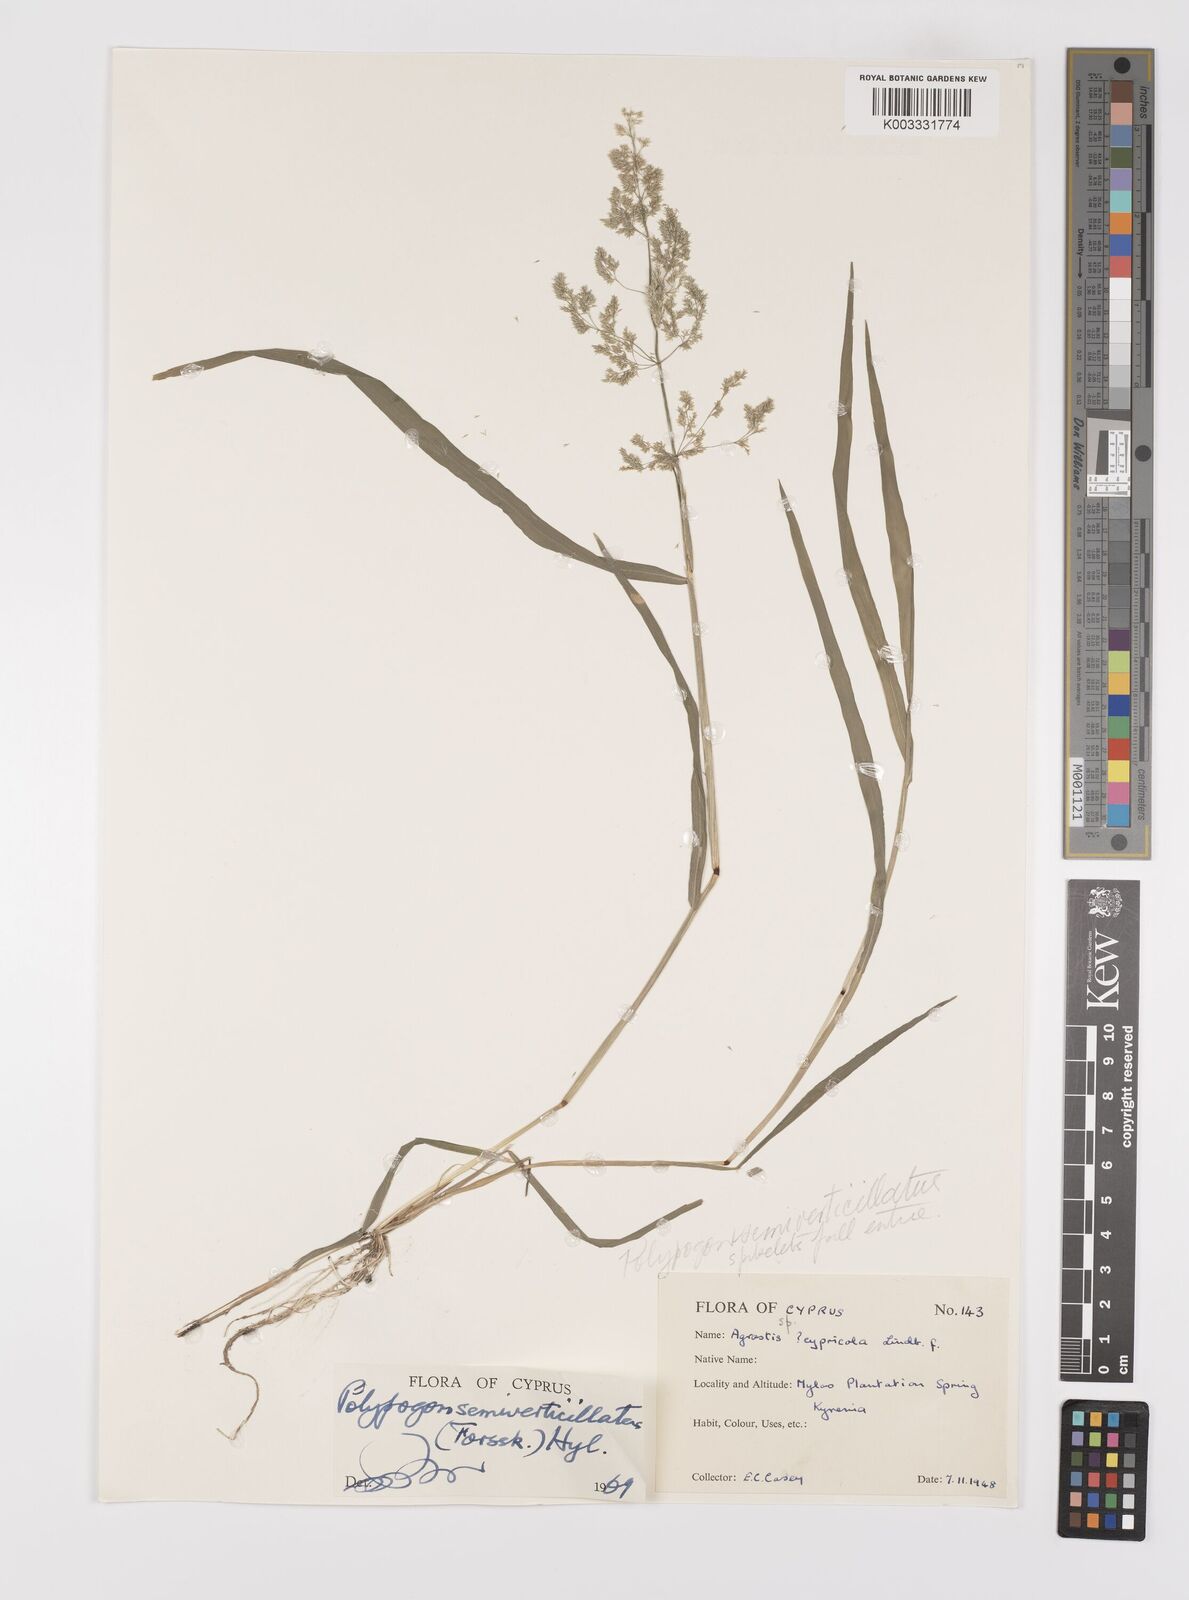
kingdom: Plantae
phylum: Tracheophyta
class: Liliopsida
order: Poales
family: Poaceae
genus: Polypogon
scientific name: Polypogon viridis
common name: Water bent
